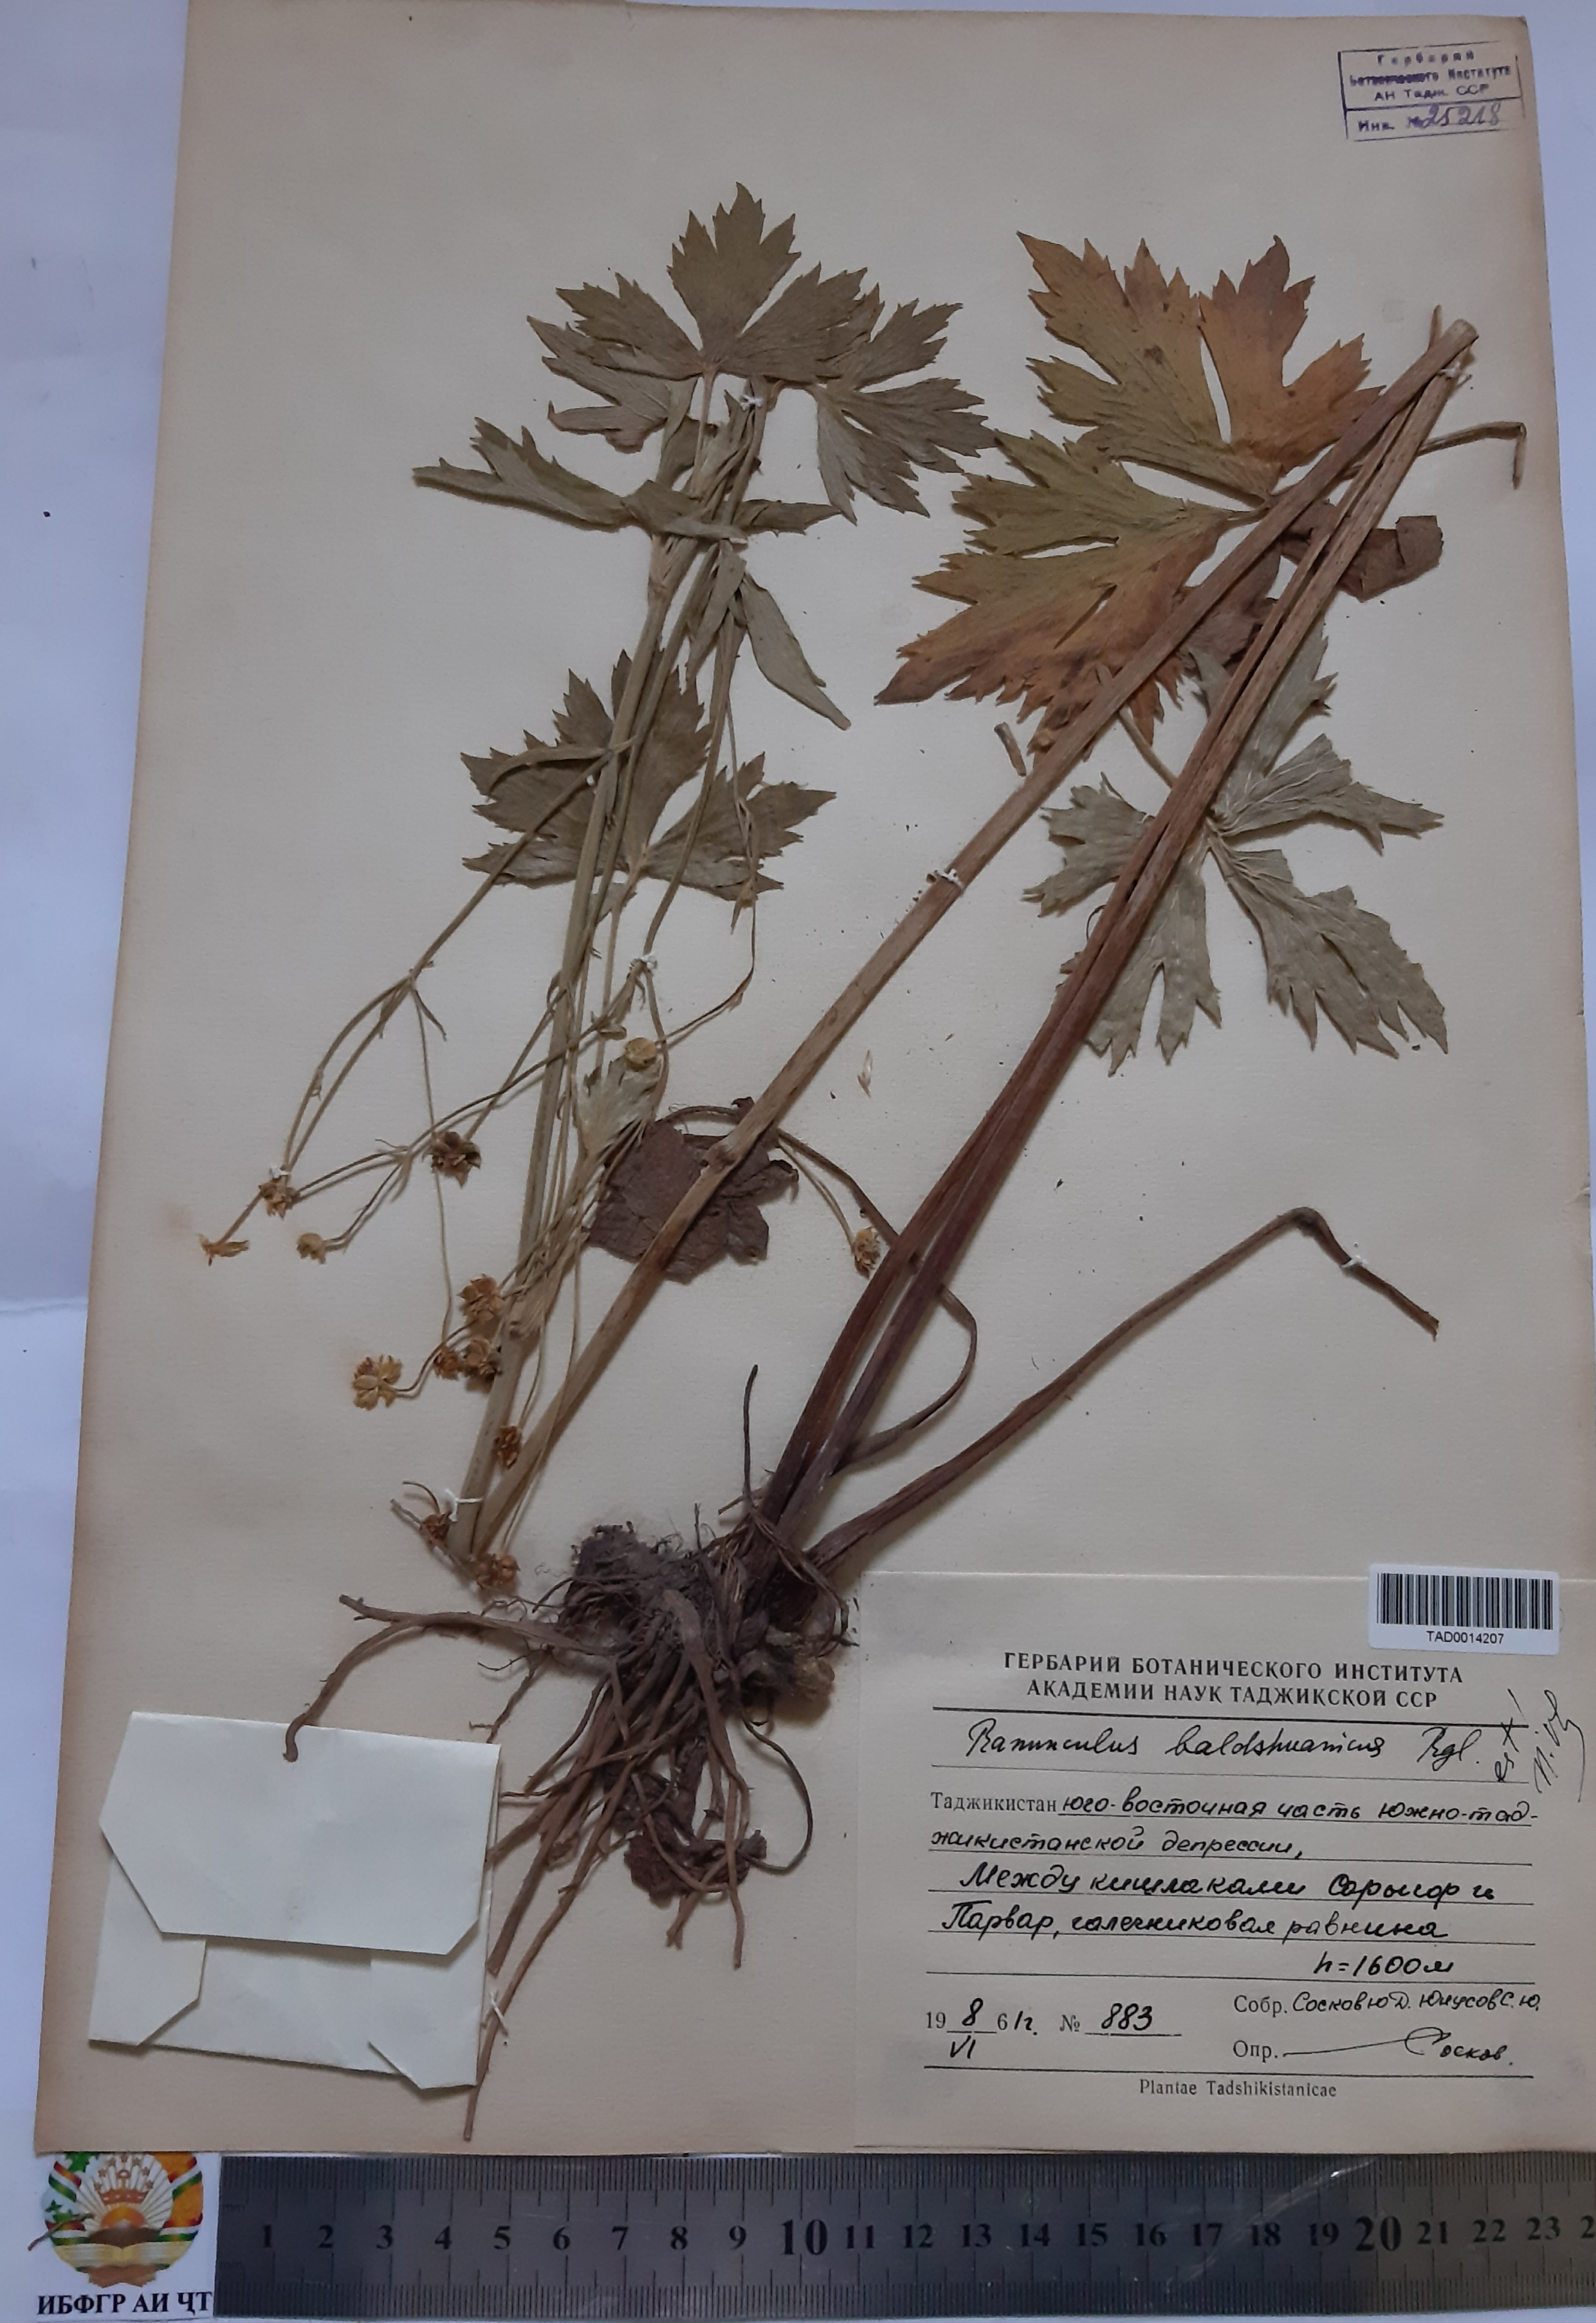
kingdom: Plantae
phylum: Tracheophyta
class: Magnoliopsida
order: Ranunculales
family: Ranunculaceae
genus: Ranunculus
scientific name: Ranunculus baldshuanicus
